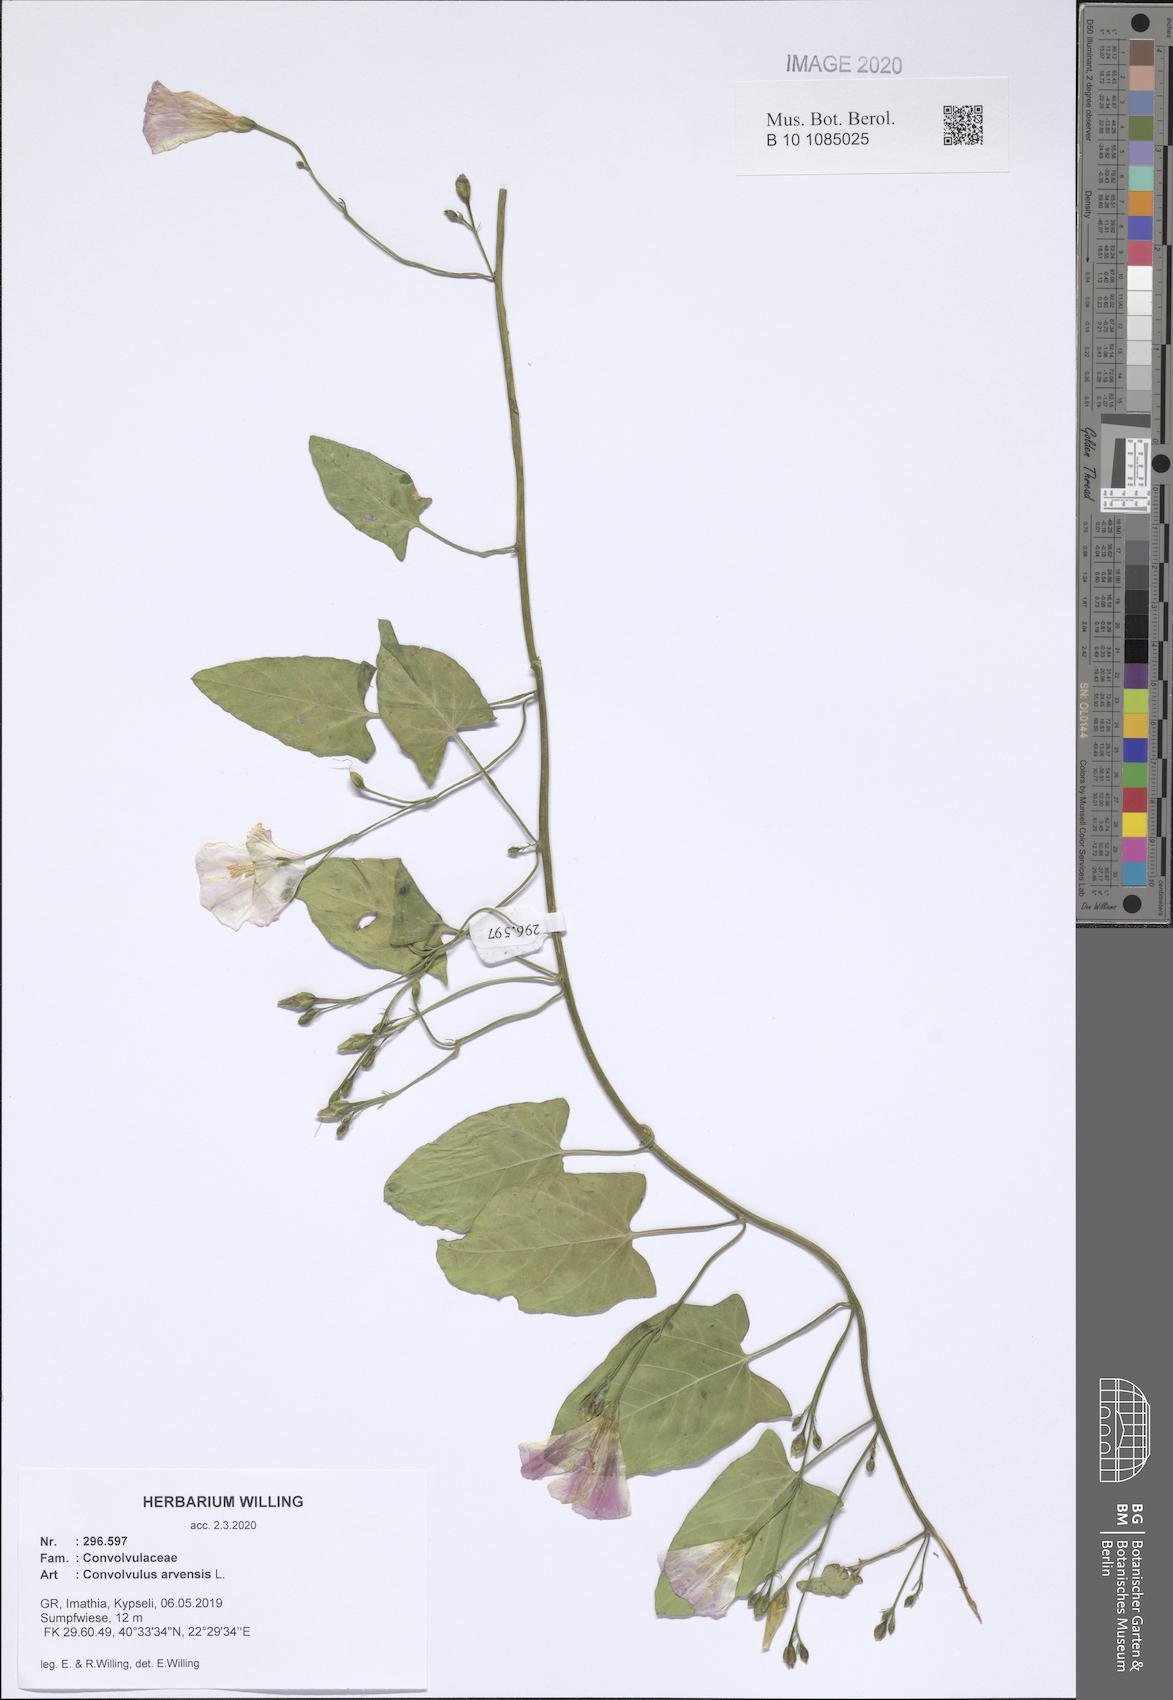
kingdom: Plantae
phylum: Tracheophyta
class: Magnoliopsida
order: Solanales
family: Convolvulaceae
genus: Convolvulus
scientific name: Convolvulus arvensis
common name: Field bindweed
